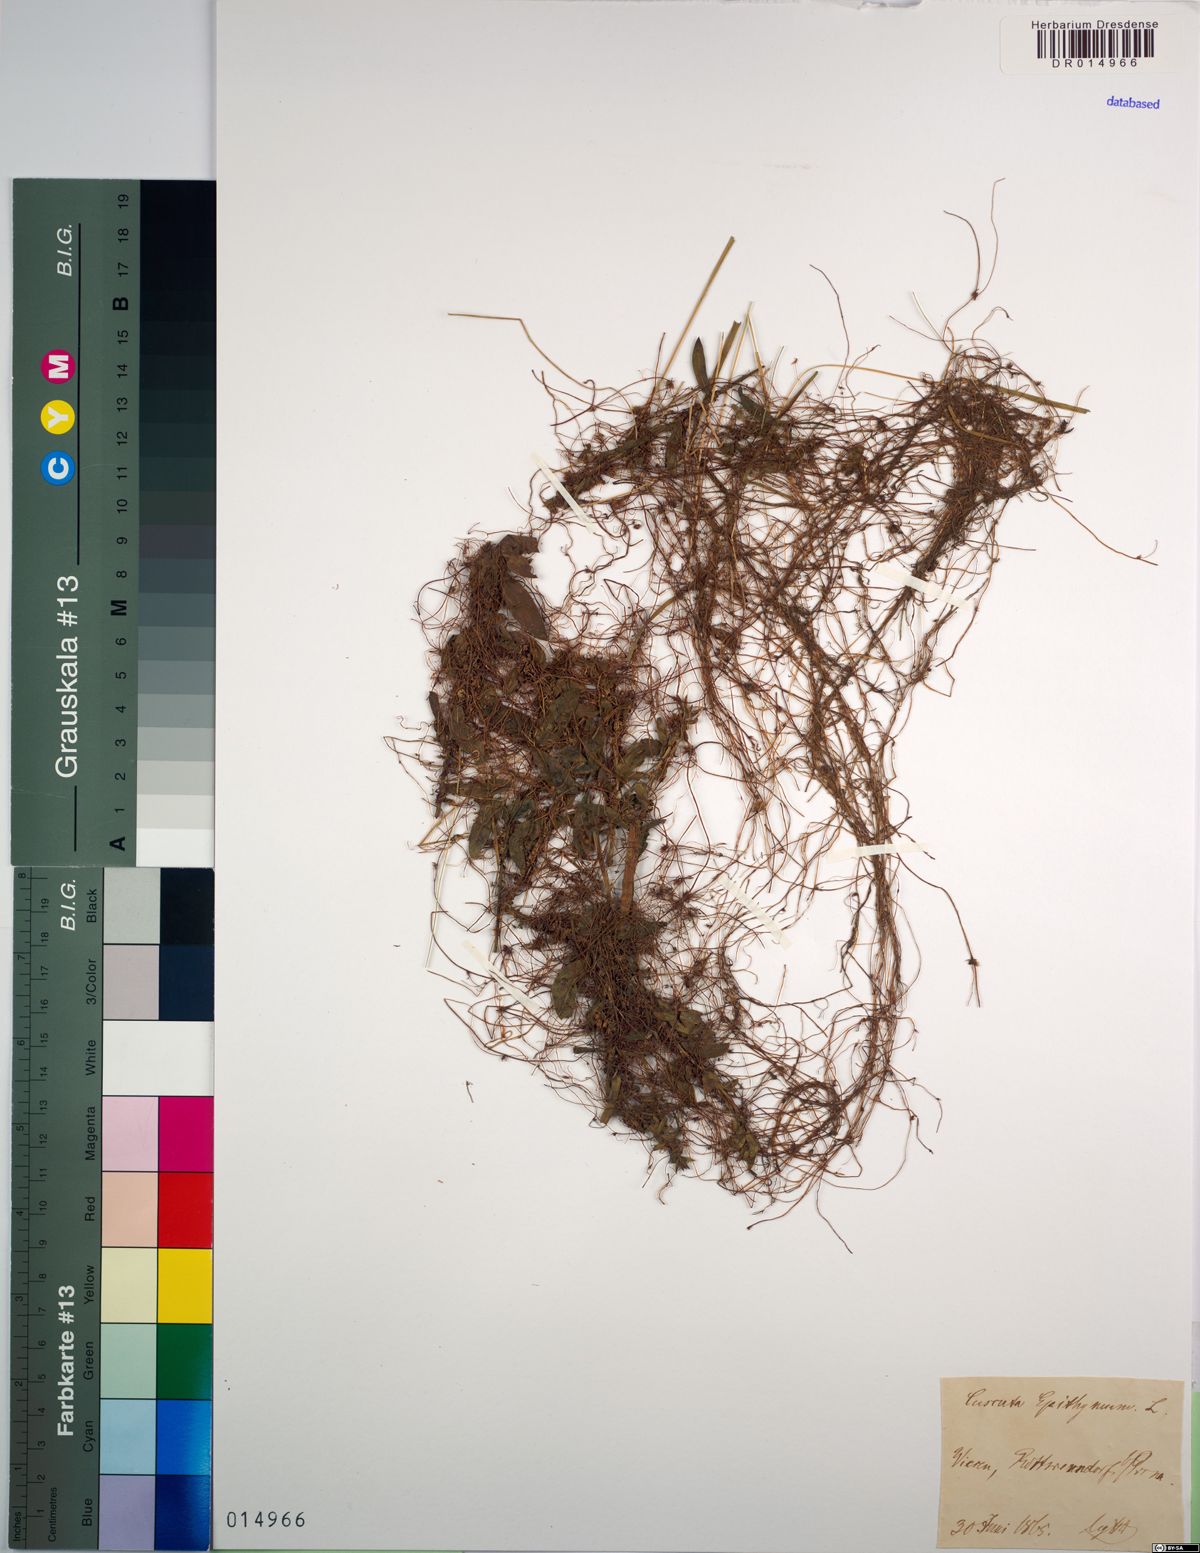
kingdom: Plantae
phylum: Tracheophyta
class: Magnoliopsida
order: Solanales
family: Convolvulaceae
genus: Cuscuta
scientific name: Cuscuta epithymum
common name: Clover dodder
